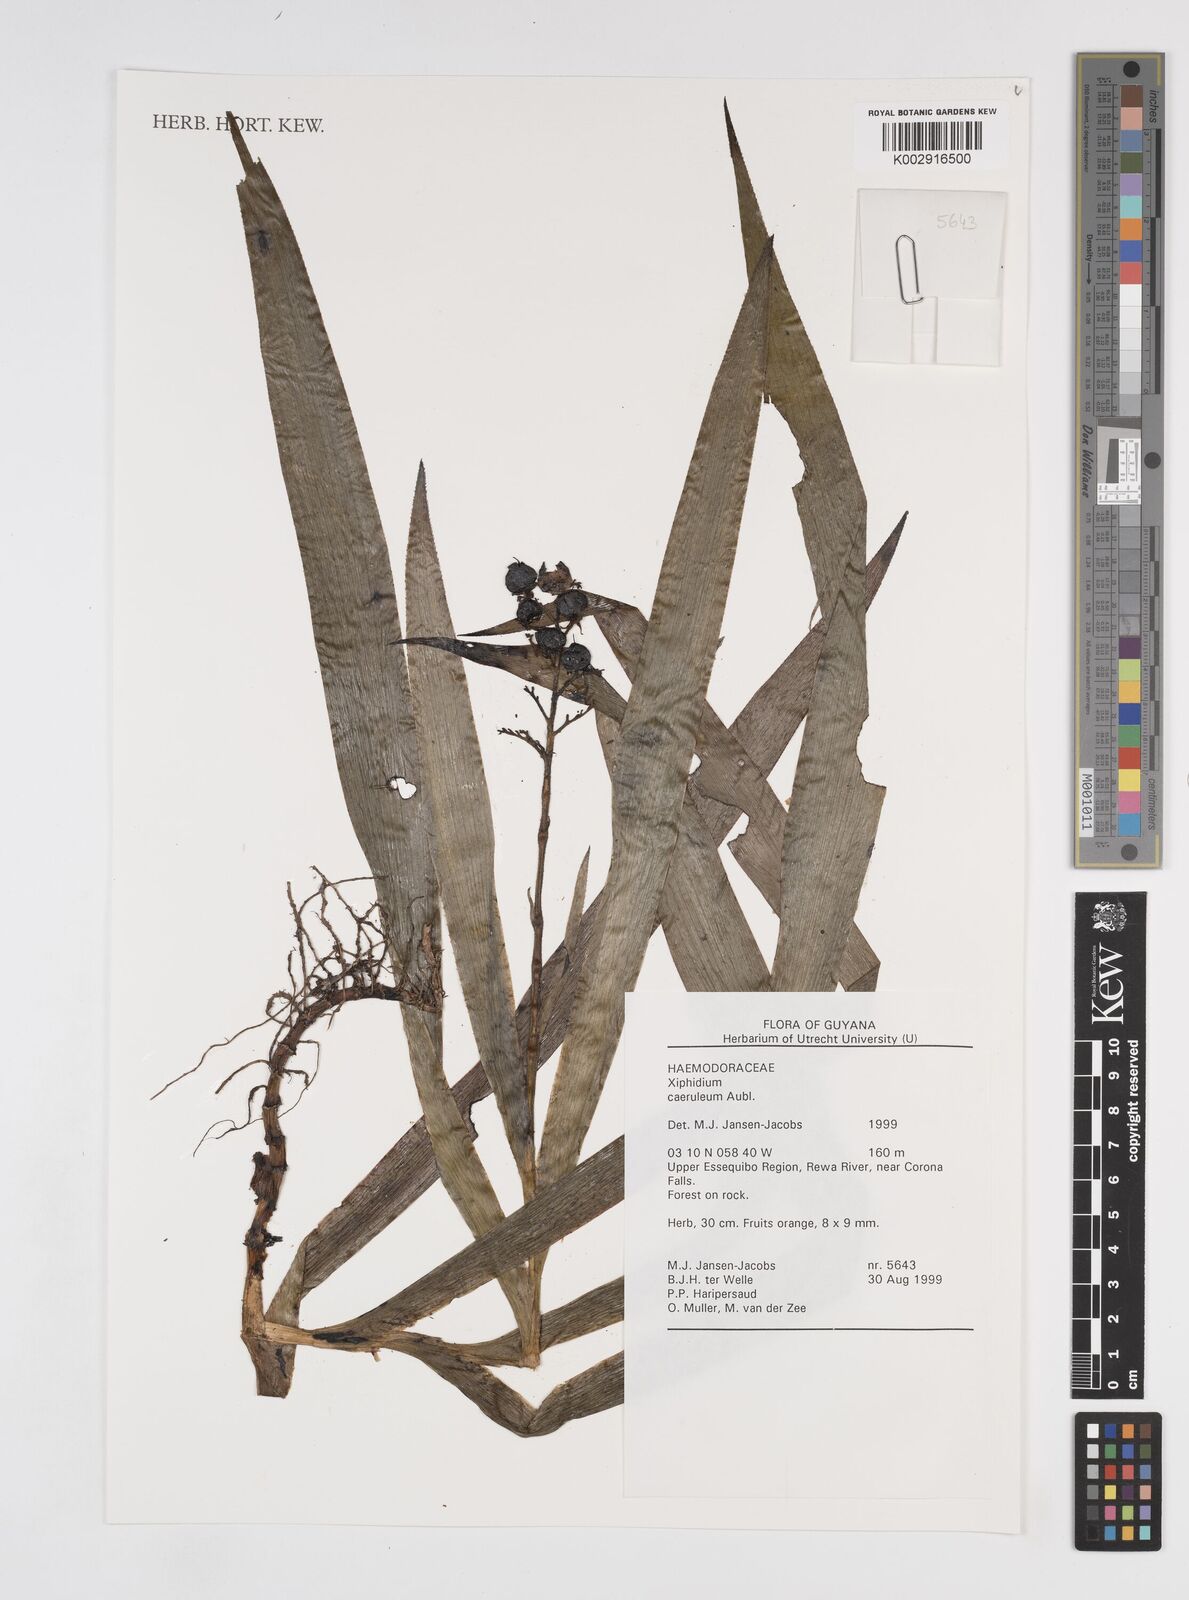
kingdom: Plantae
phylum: Tracheophyta
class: Liliopsida
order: Commelinales
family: Haemodoraceae
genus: Xiphidium
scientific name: Xiphidium caeruleum
